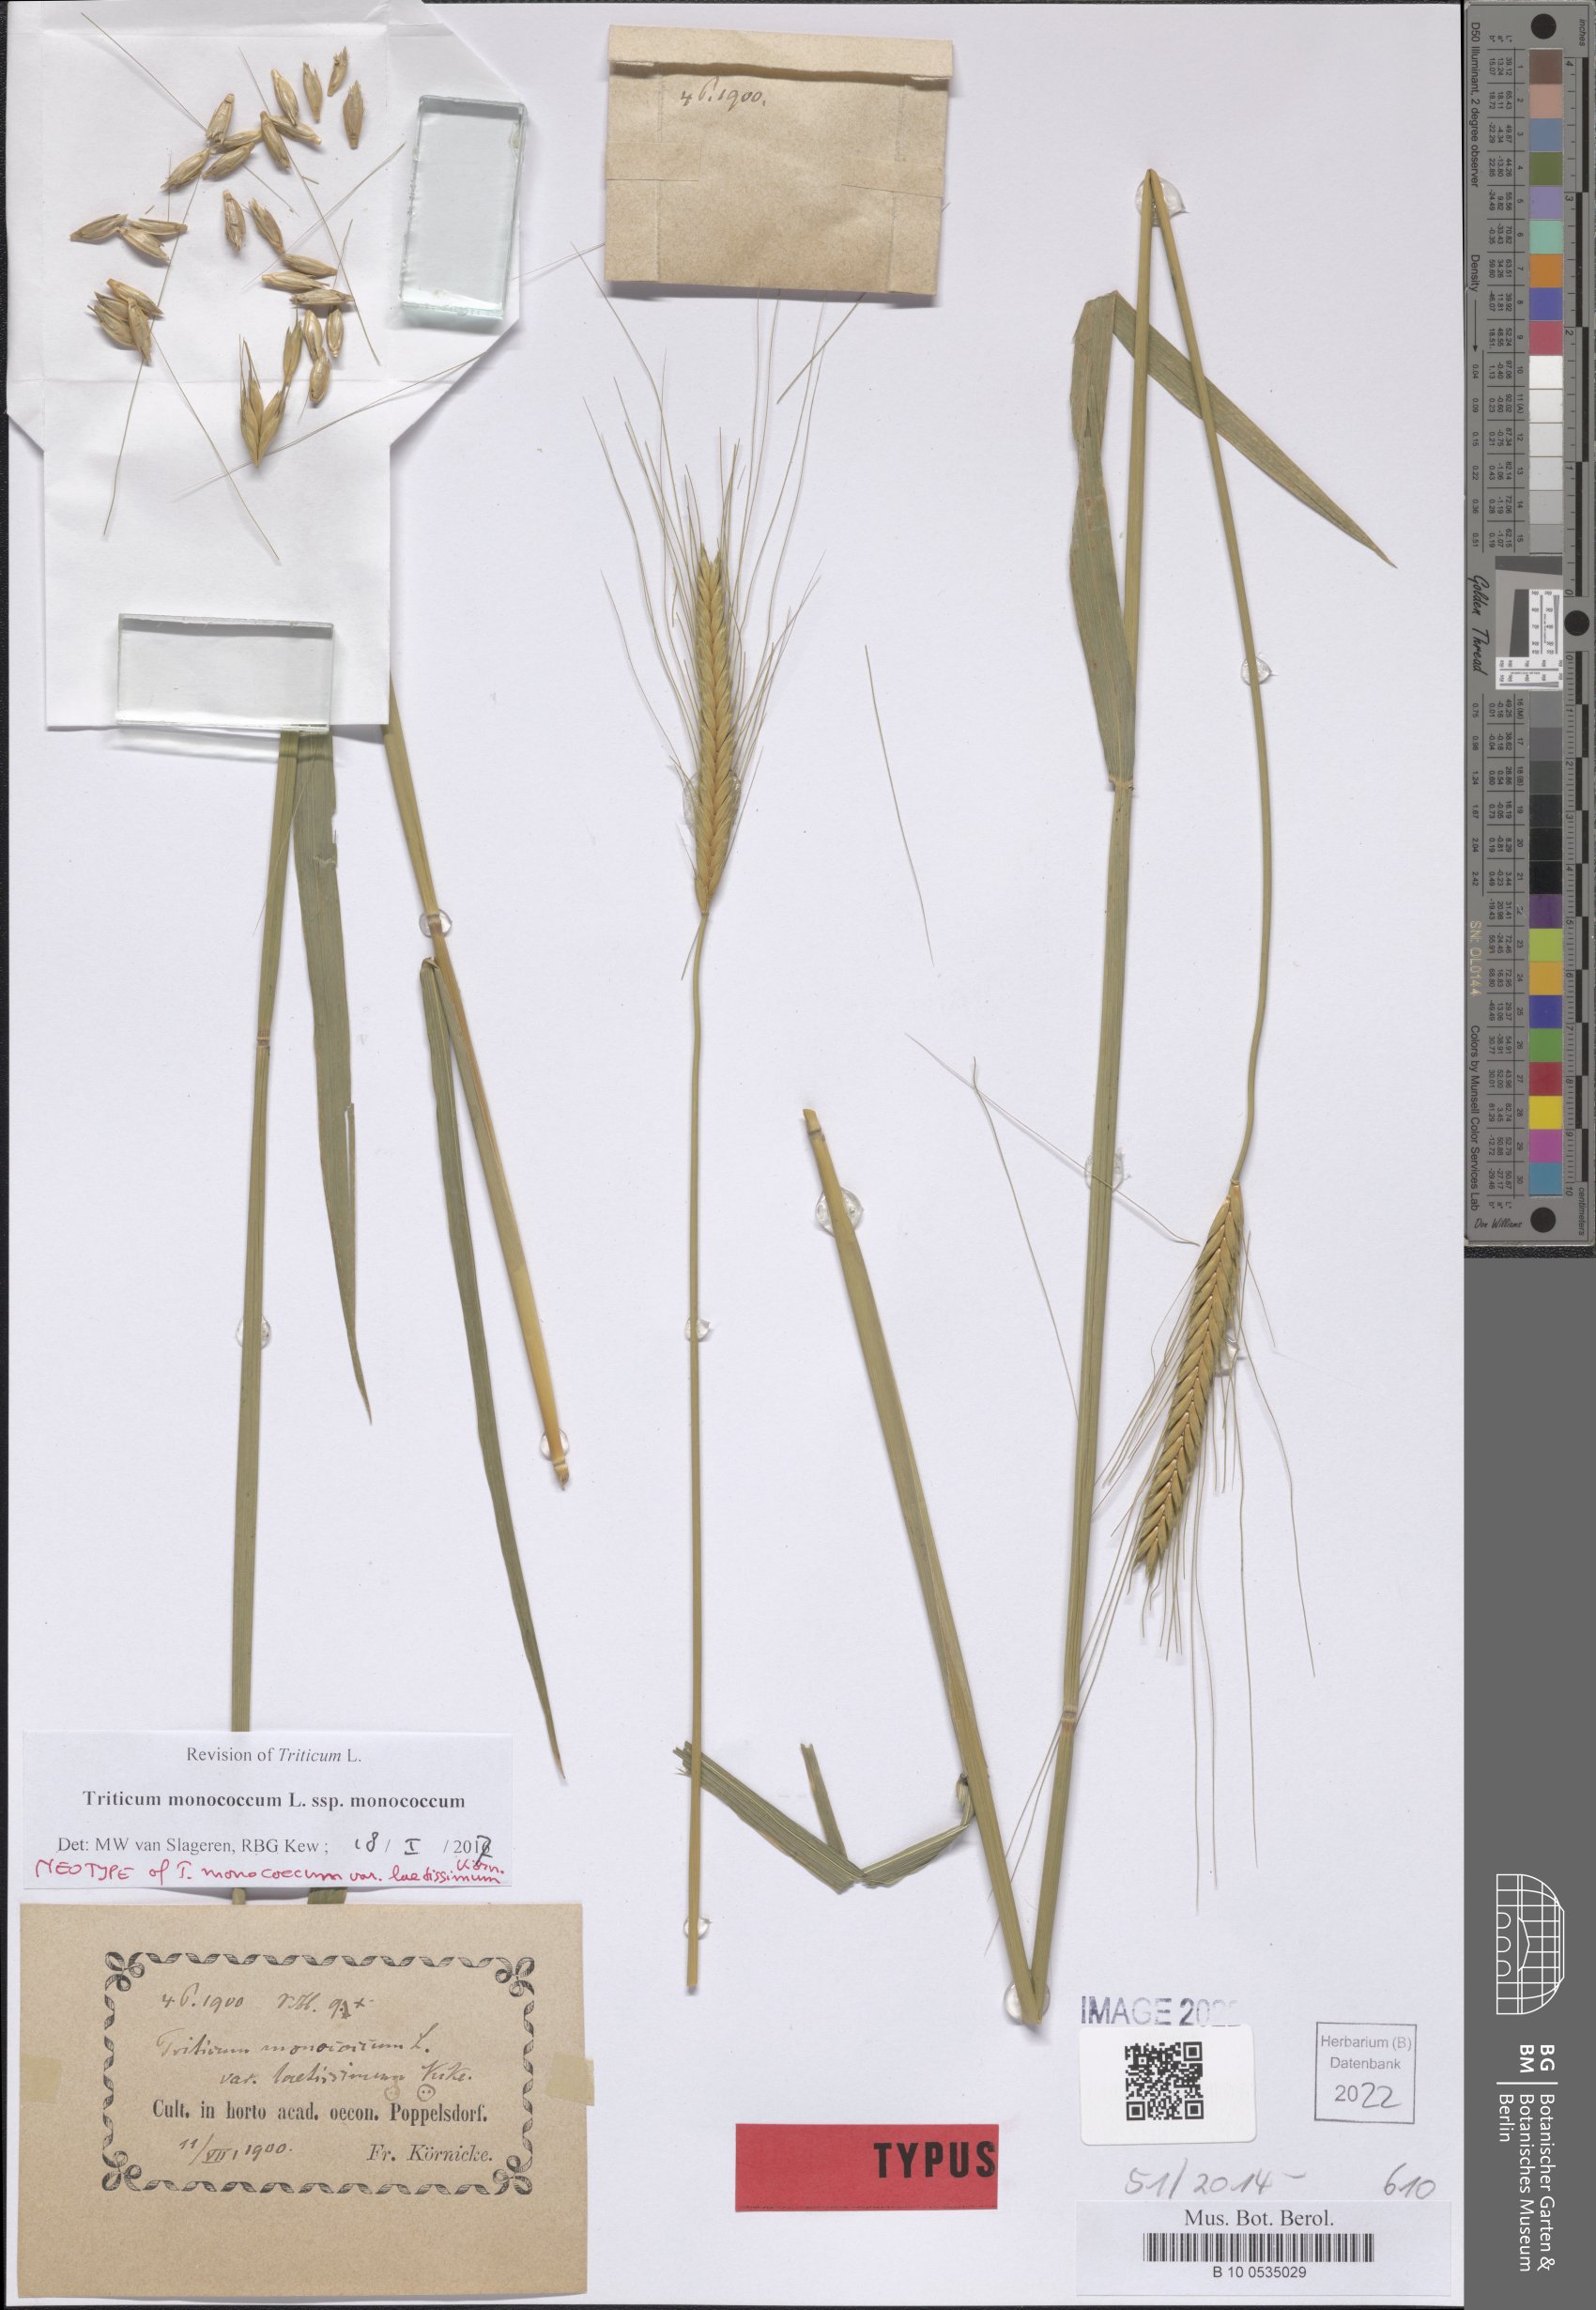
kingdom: Plantae
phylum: Tracheophyta
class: Liliopsida
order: Poales
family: Poaceae
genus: Triticum
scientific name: Triticum monococcum
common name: Einkorn
